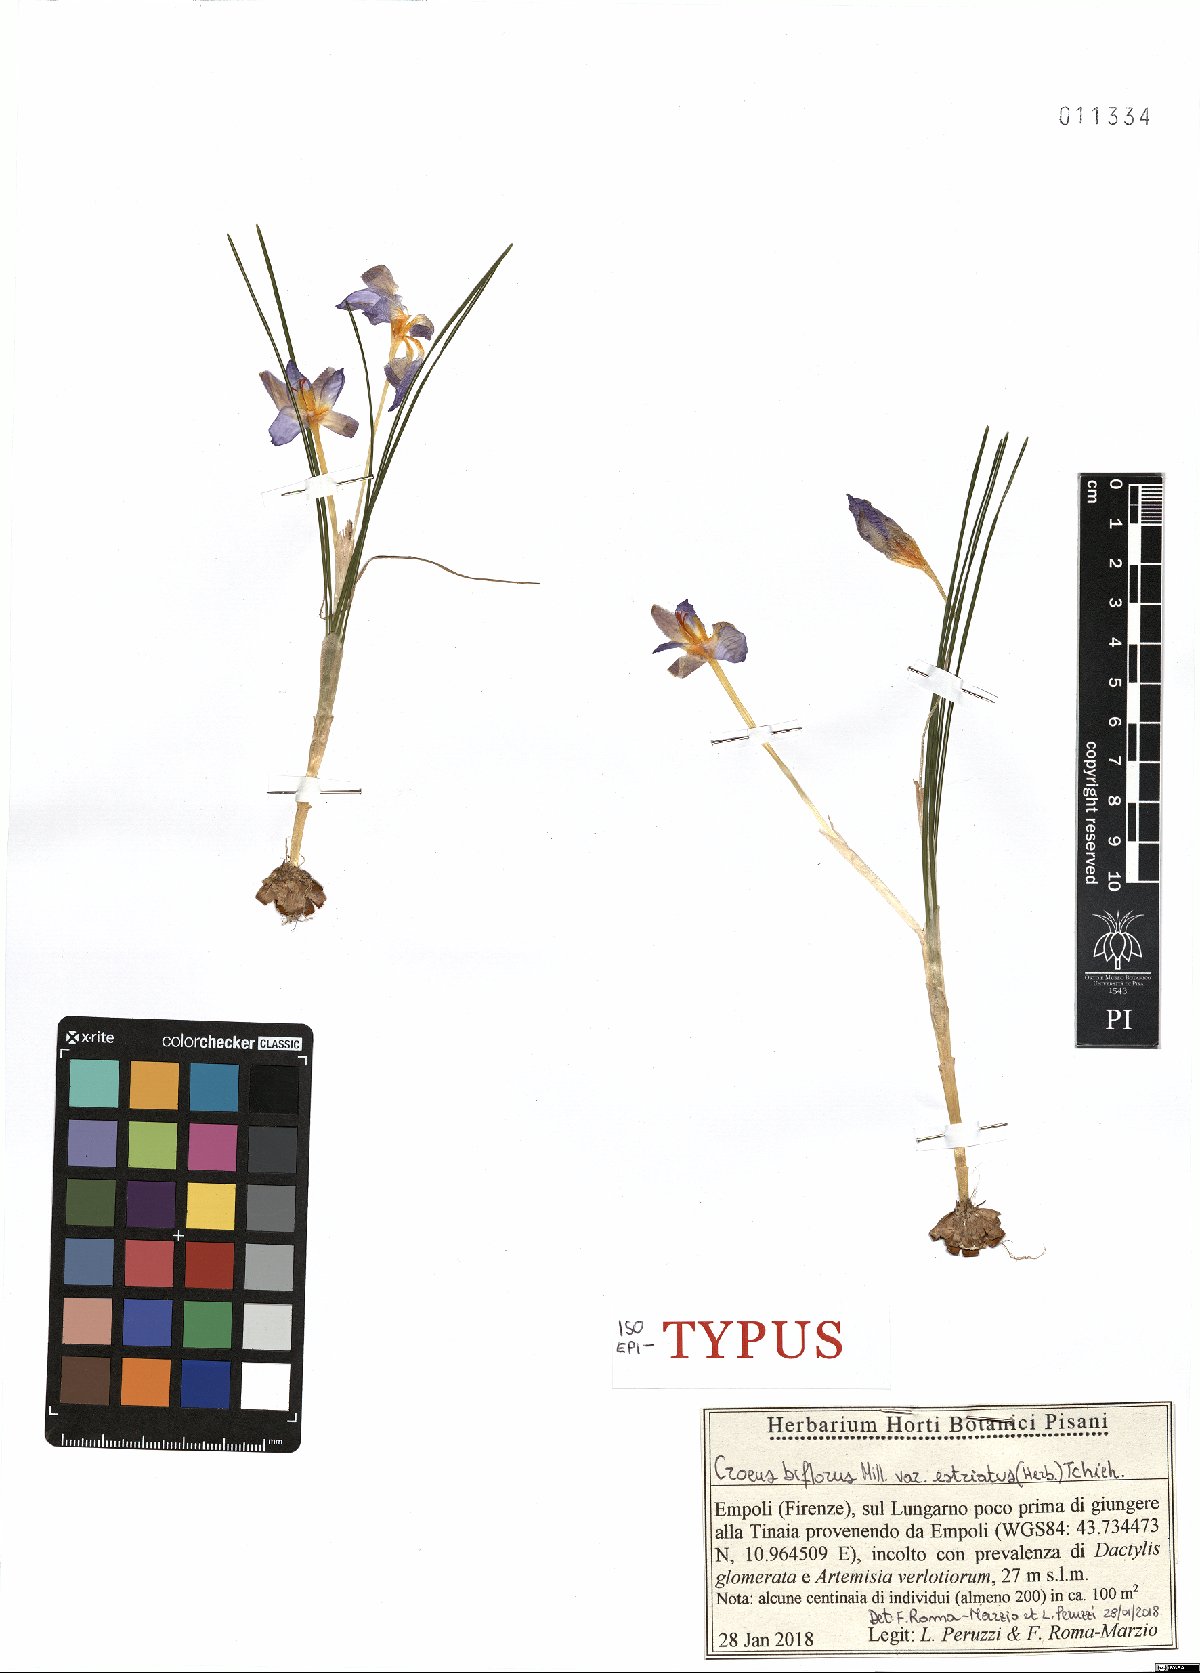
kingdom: Plantae
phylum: Tracheophyta
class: Liliopsida
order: Asparagales
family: Iridaceae
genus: Crocus
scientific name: Crocus biflorus
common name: Silvery crocus
